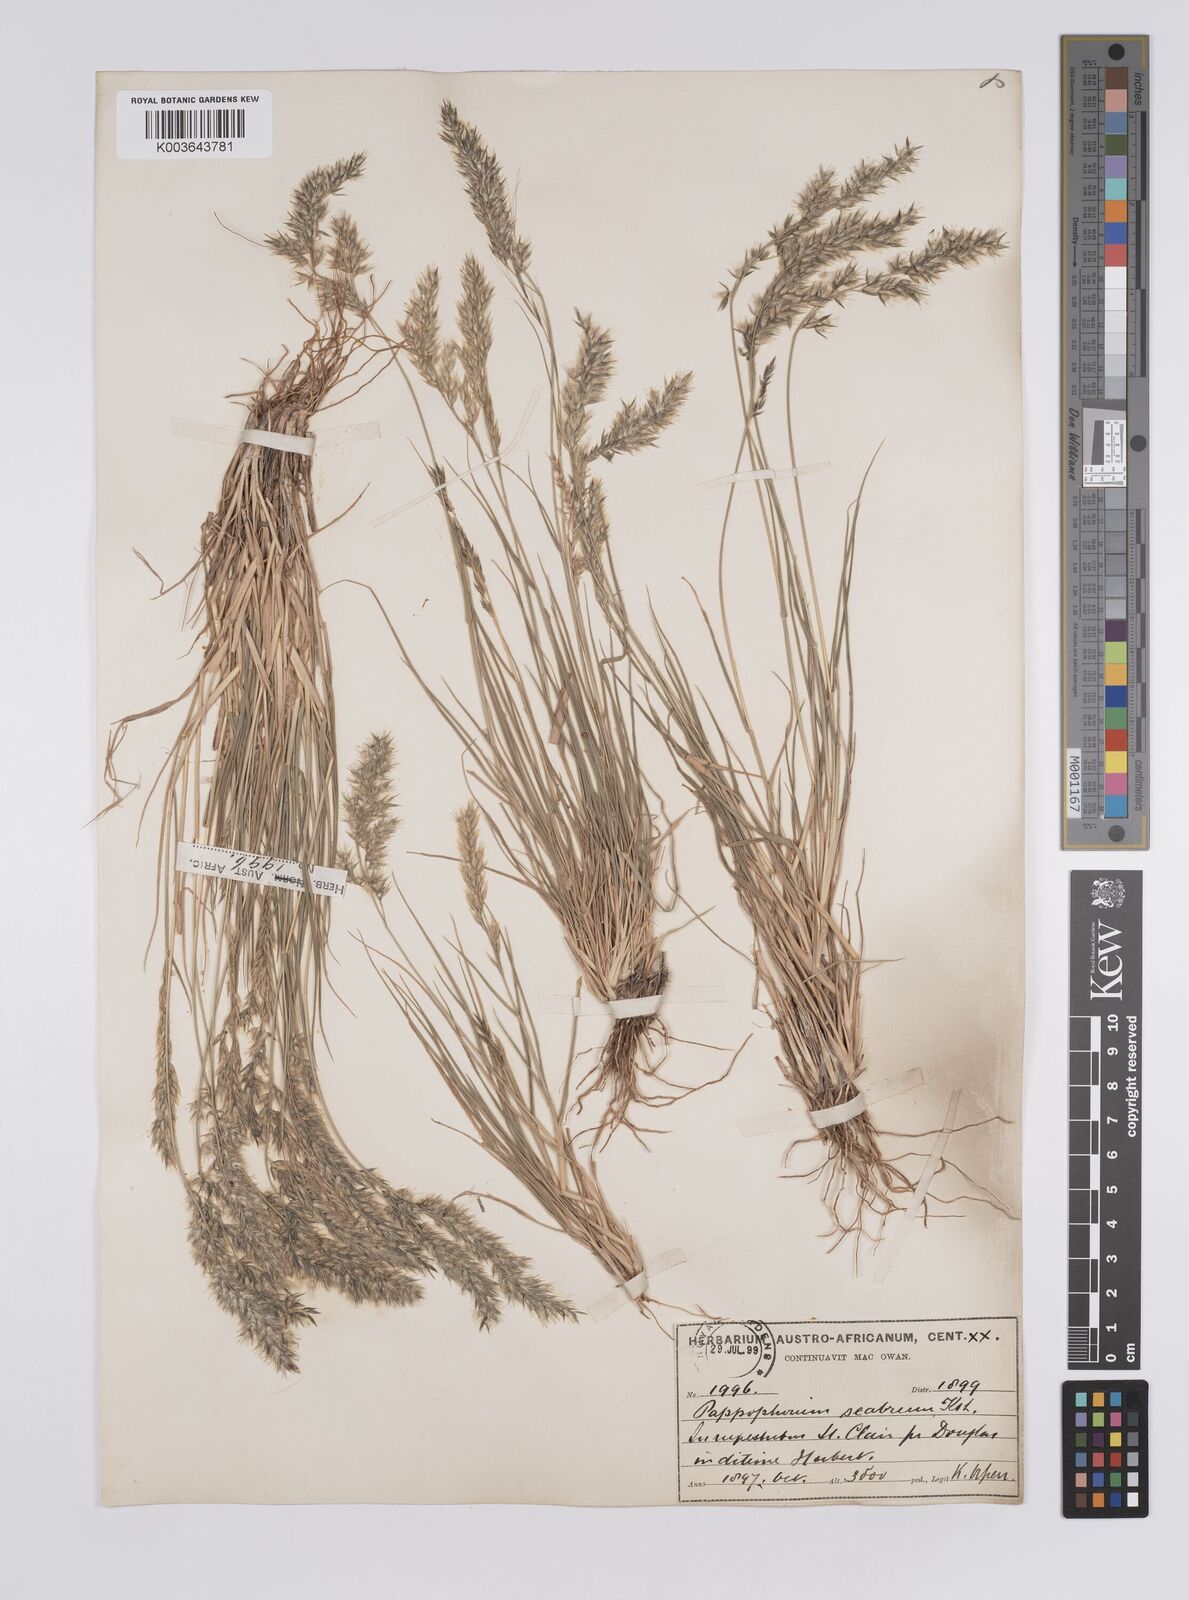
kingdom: Plantae
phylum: Tracheophyta
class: Liliopsida
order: Poales
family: Poaceae
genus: Enneapogon
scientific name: Enneapogon scaber
